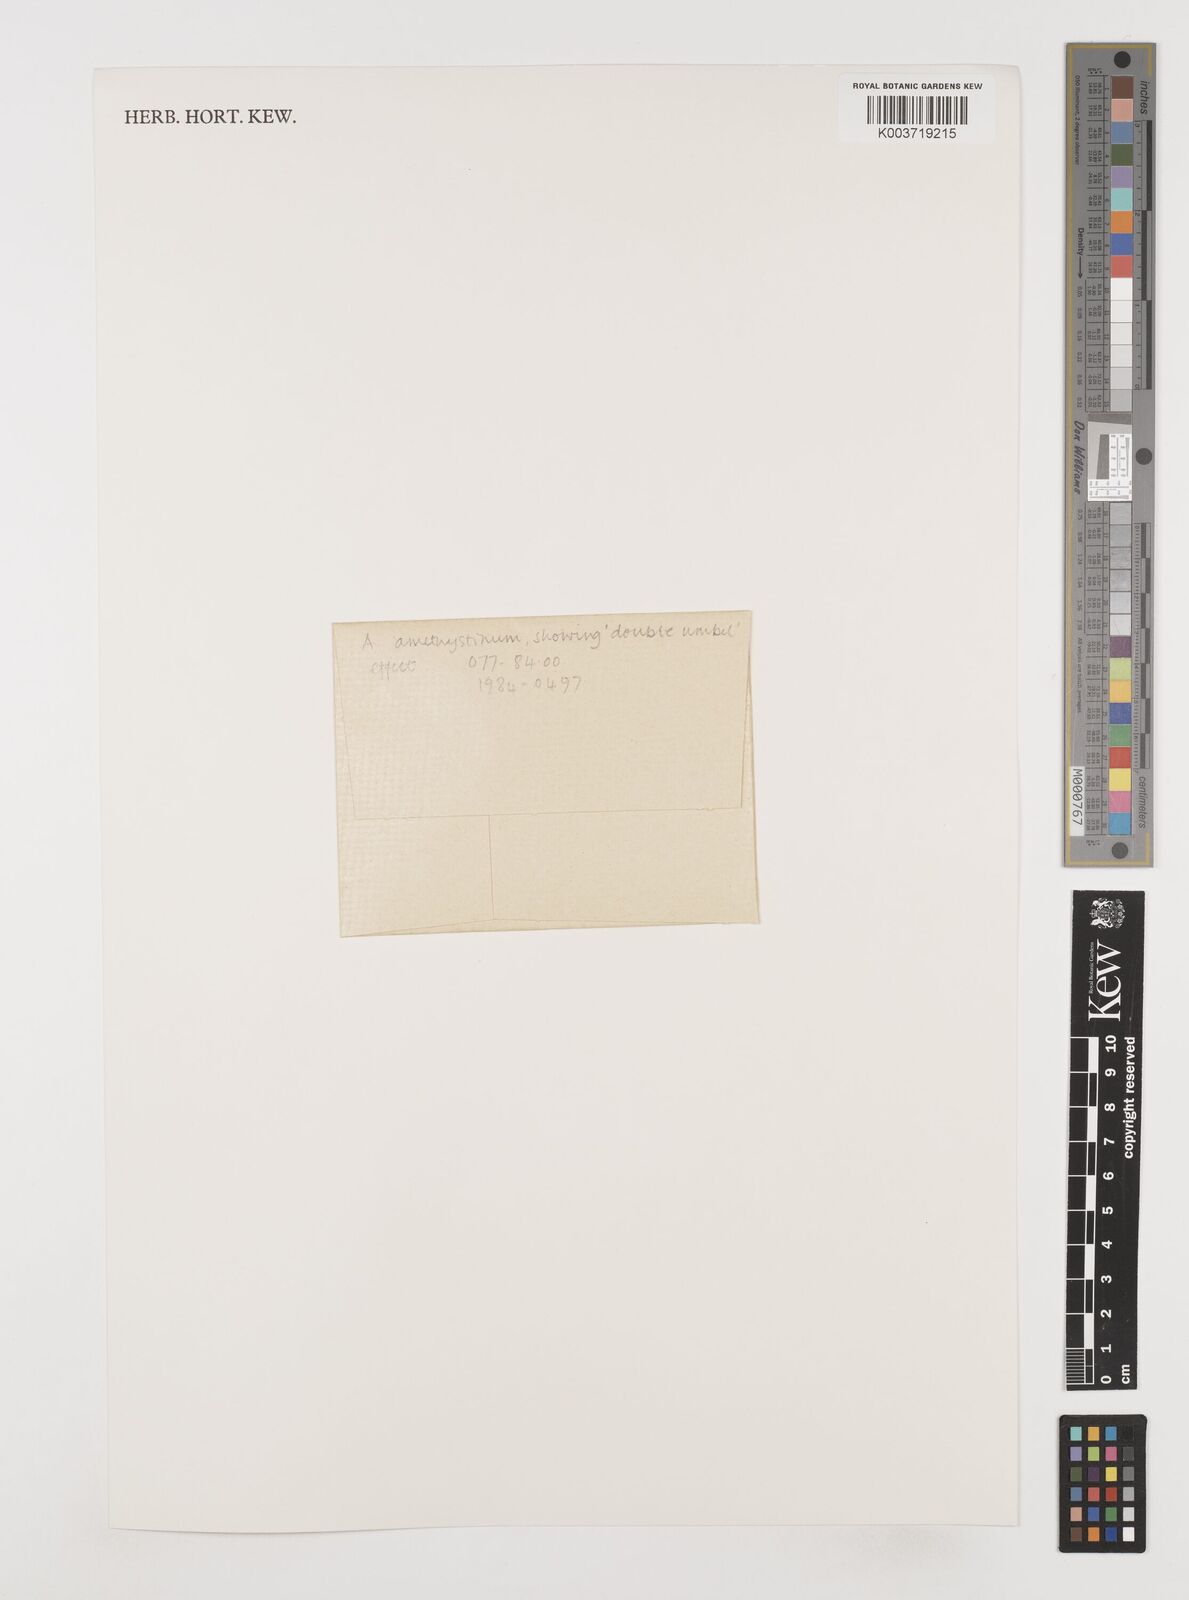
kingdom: Plantae
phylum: Tracheophyta
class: Liliopsida
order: Asparagales
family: Amaryllidaceae
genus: Allium
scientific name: Allium amethystinum
